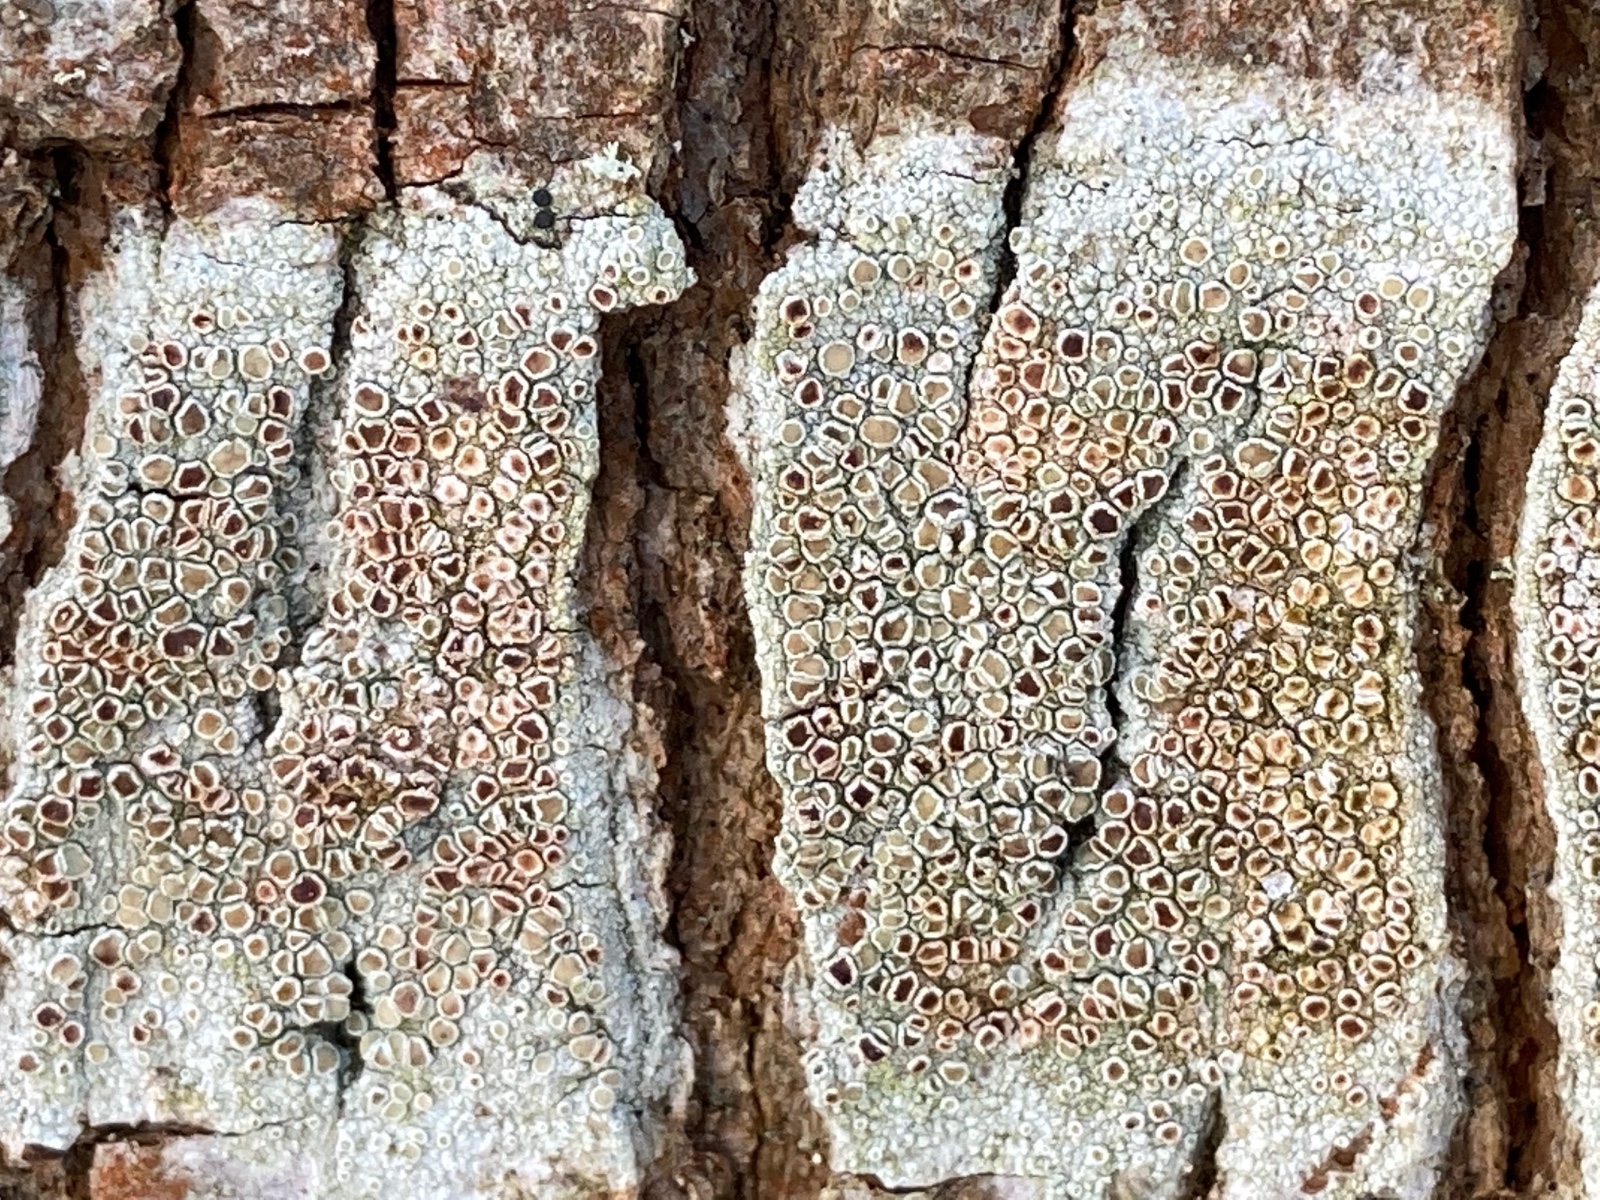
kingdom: Fungi
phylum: Ascomycota
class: Lecanoromycetes
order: Lecanorales
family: Lecanoraceae
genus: Lecanora
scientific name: Lecanora chlarotera
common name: brun kantskivelav
